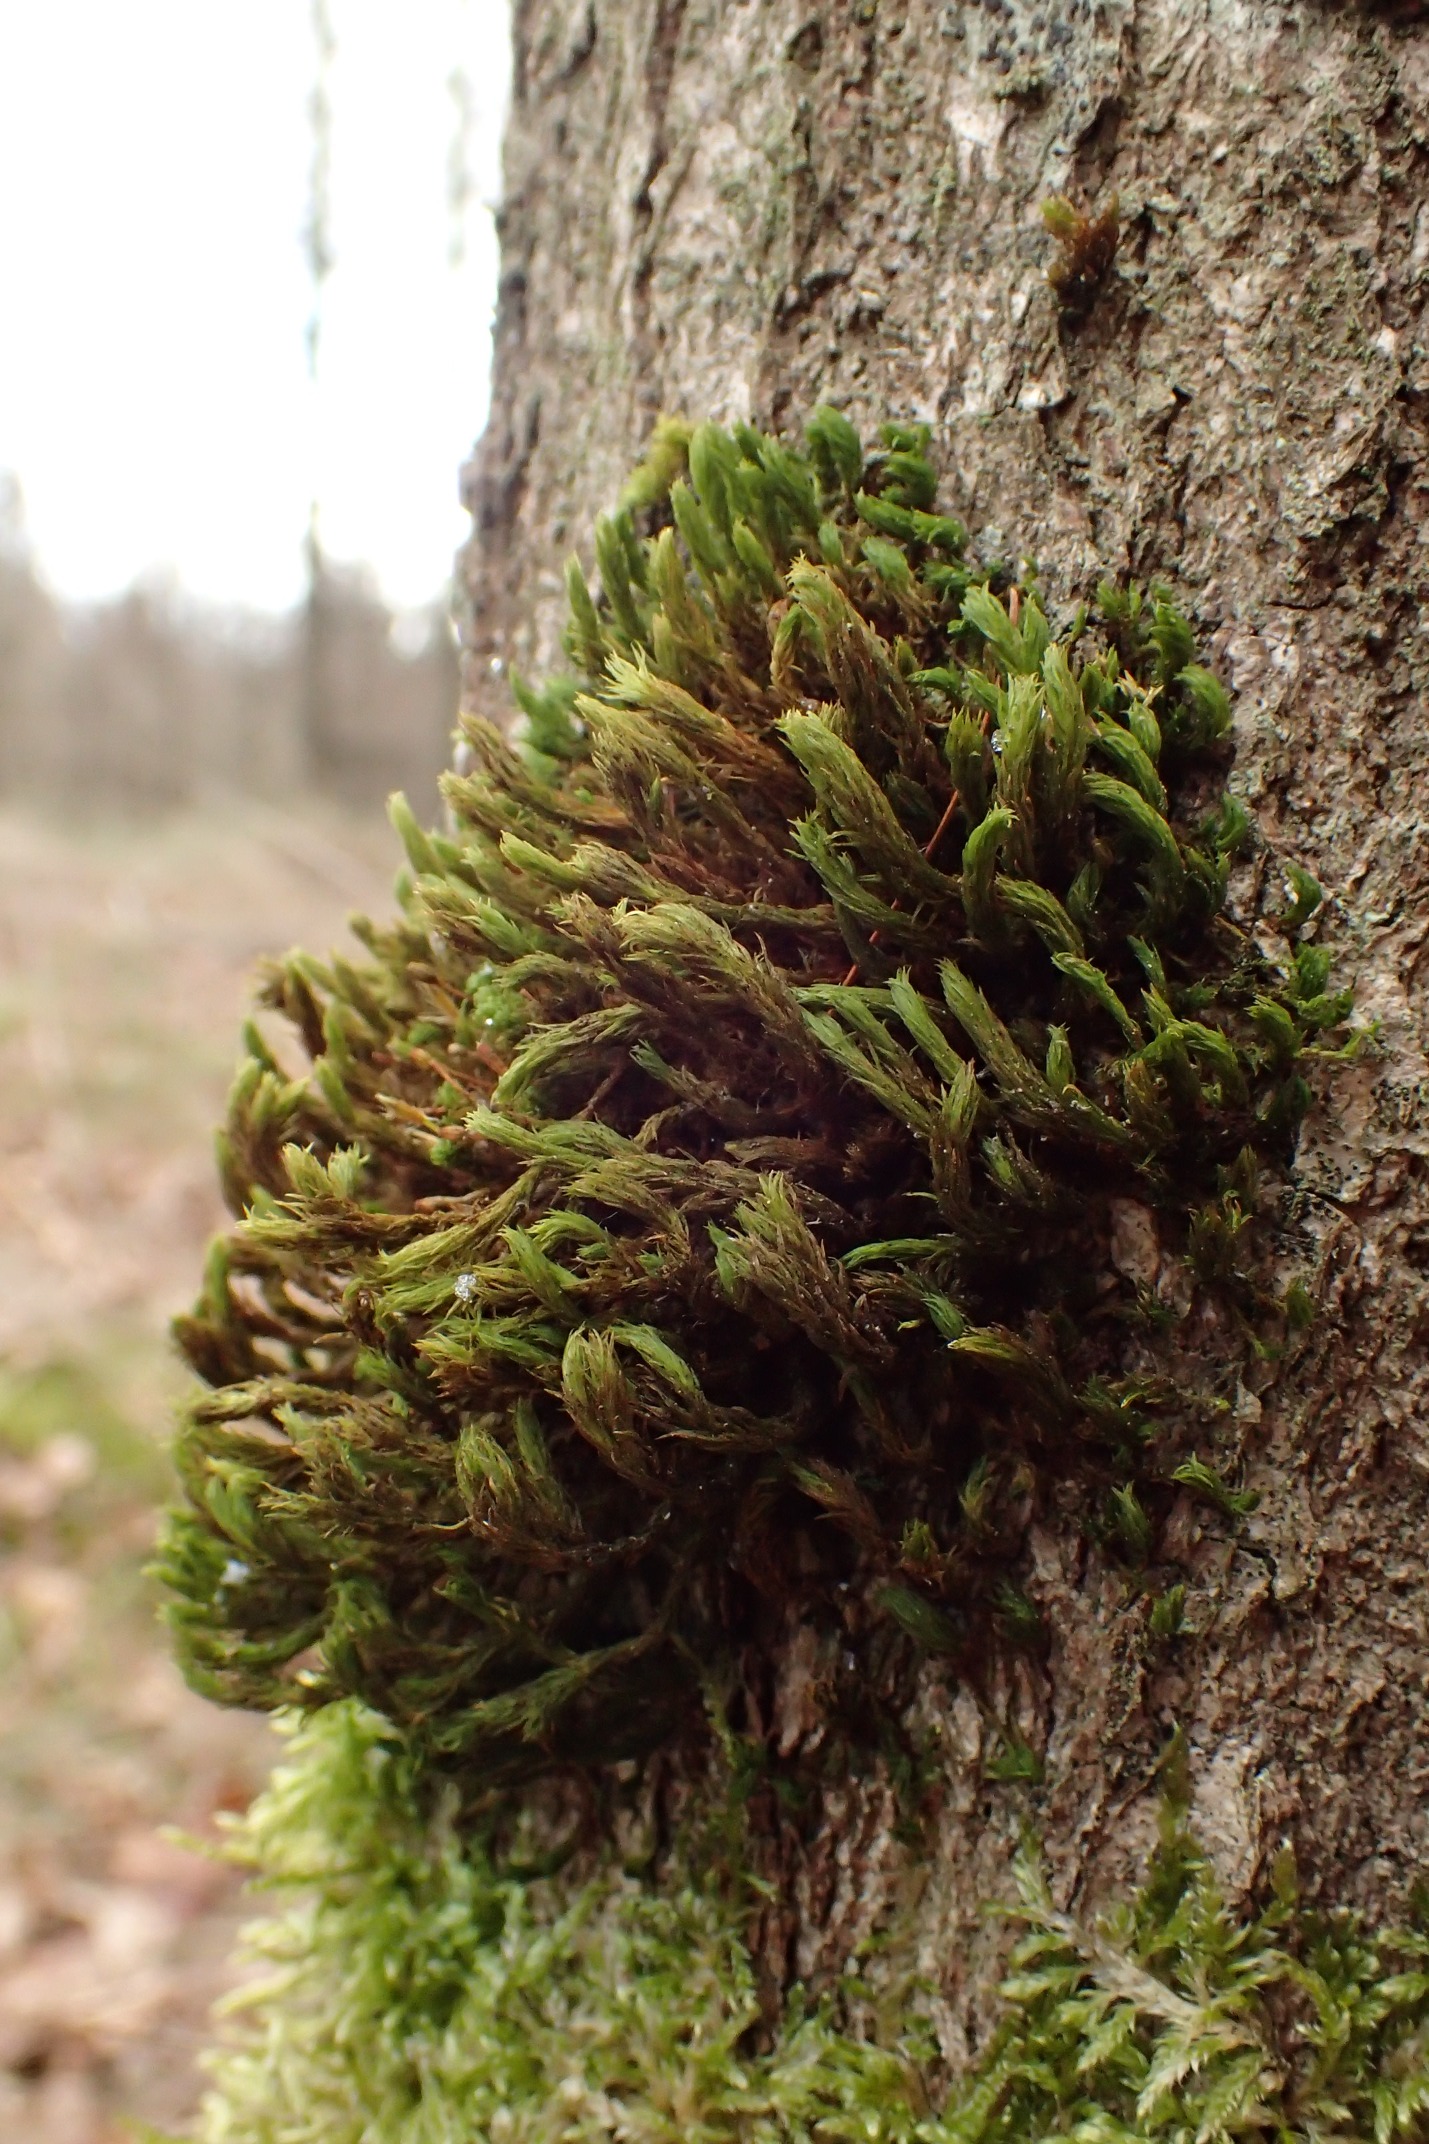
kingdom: Plantae
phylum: Bryophyta
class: Bryopsida
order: Orthotrichales
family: Orthotrichaceae
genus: Pulvigera
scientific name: Pulvigera lyellii
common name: Stor furehætte
